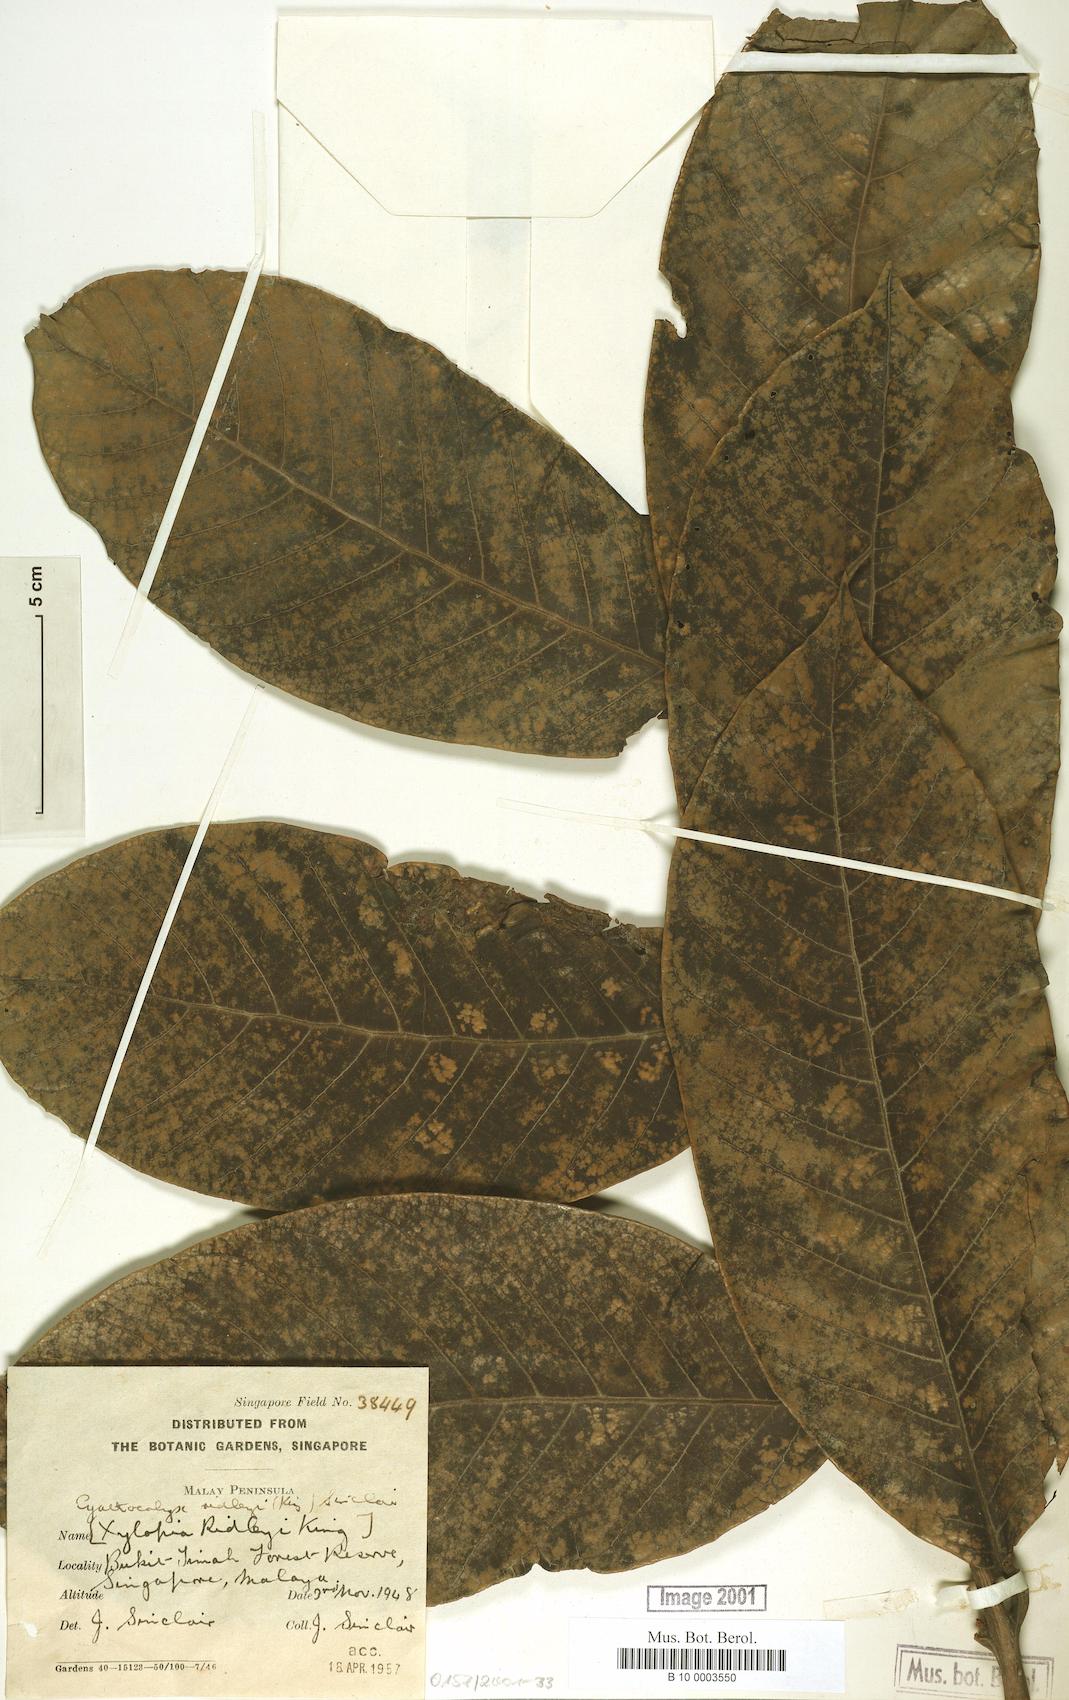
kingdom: Plantae
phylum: Tracheophyta
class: Magnoliopsida
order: Magnoliales
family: Annonaceae
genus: Drepananthus
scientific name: Drepananthus ridleyi
